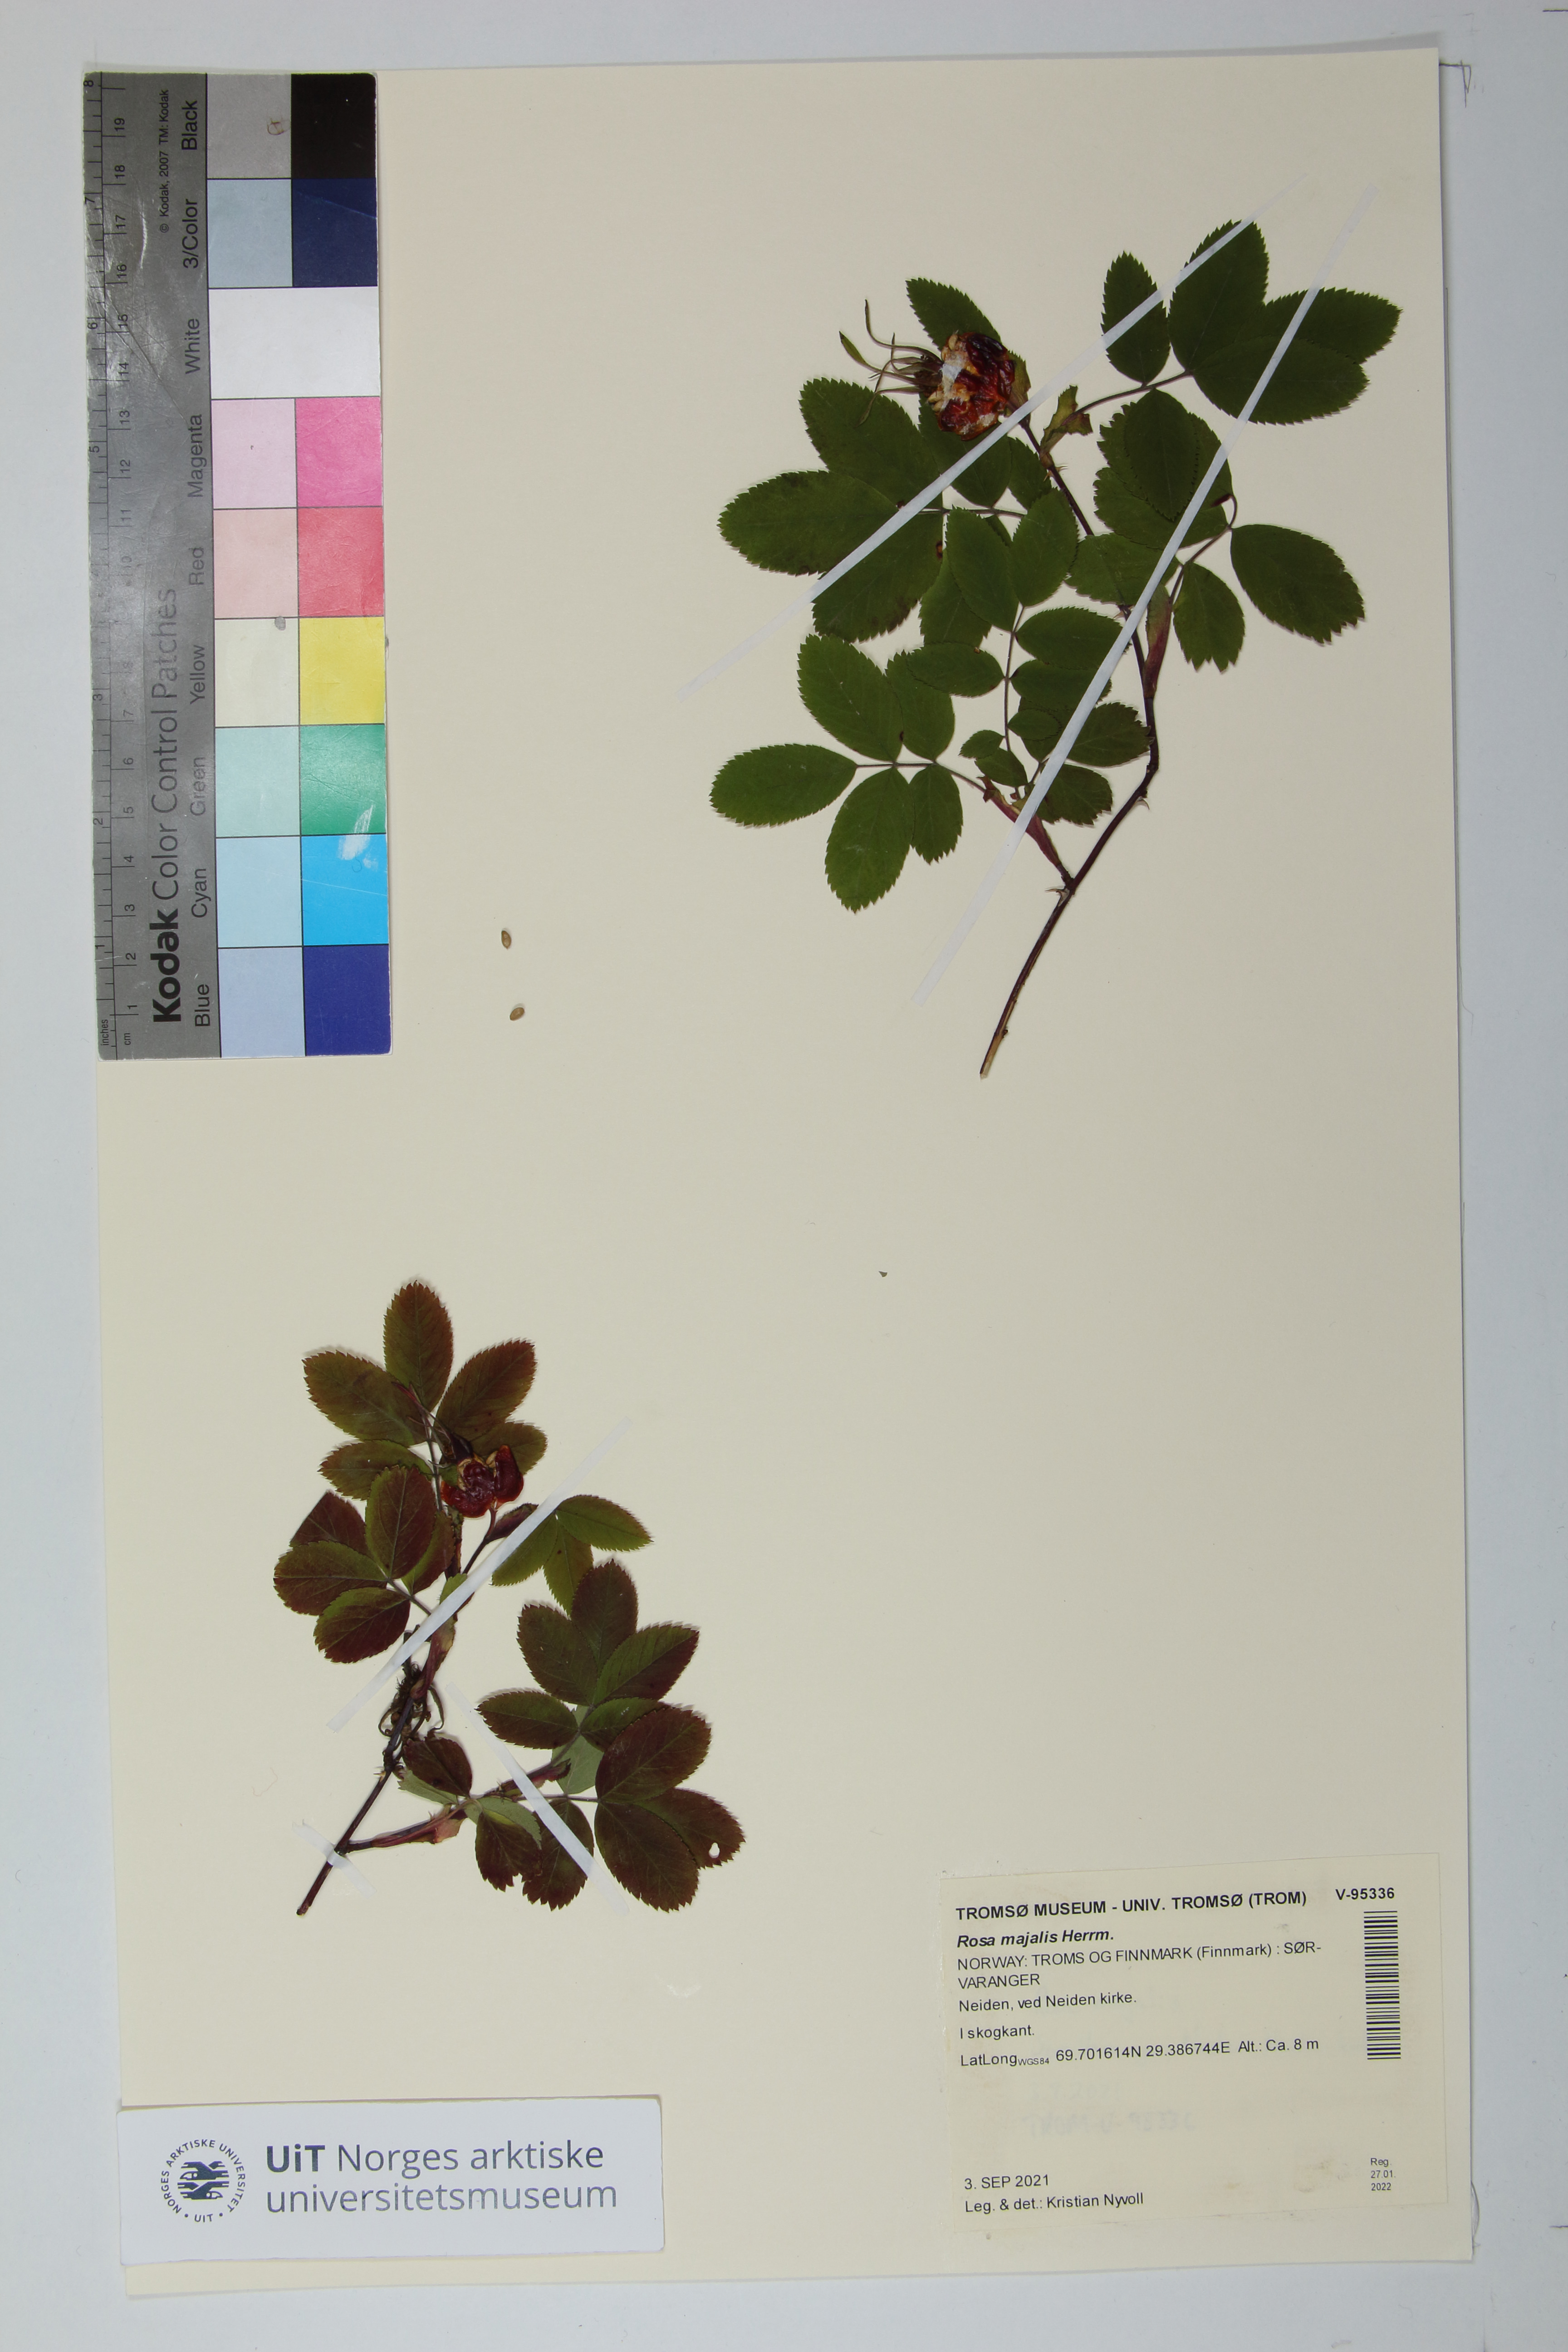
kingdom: Plantae
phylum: Tracheophyta
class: Magnoliopsida
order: Rosales
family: Rosaceae
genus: Rosa
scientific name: Rosa majalis
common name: Cinnamon rose
